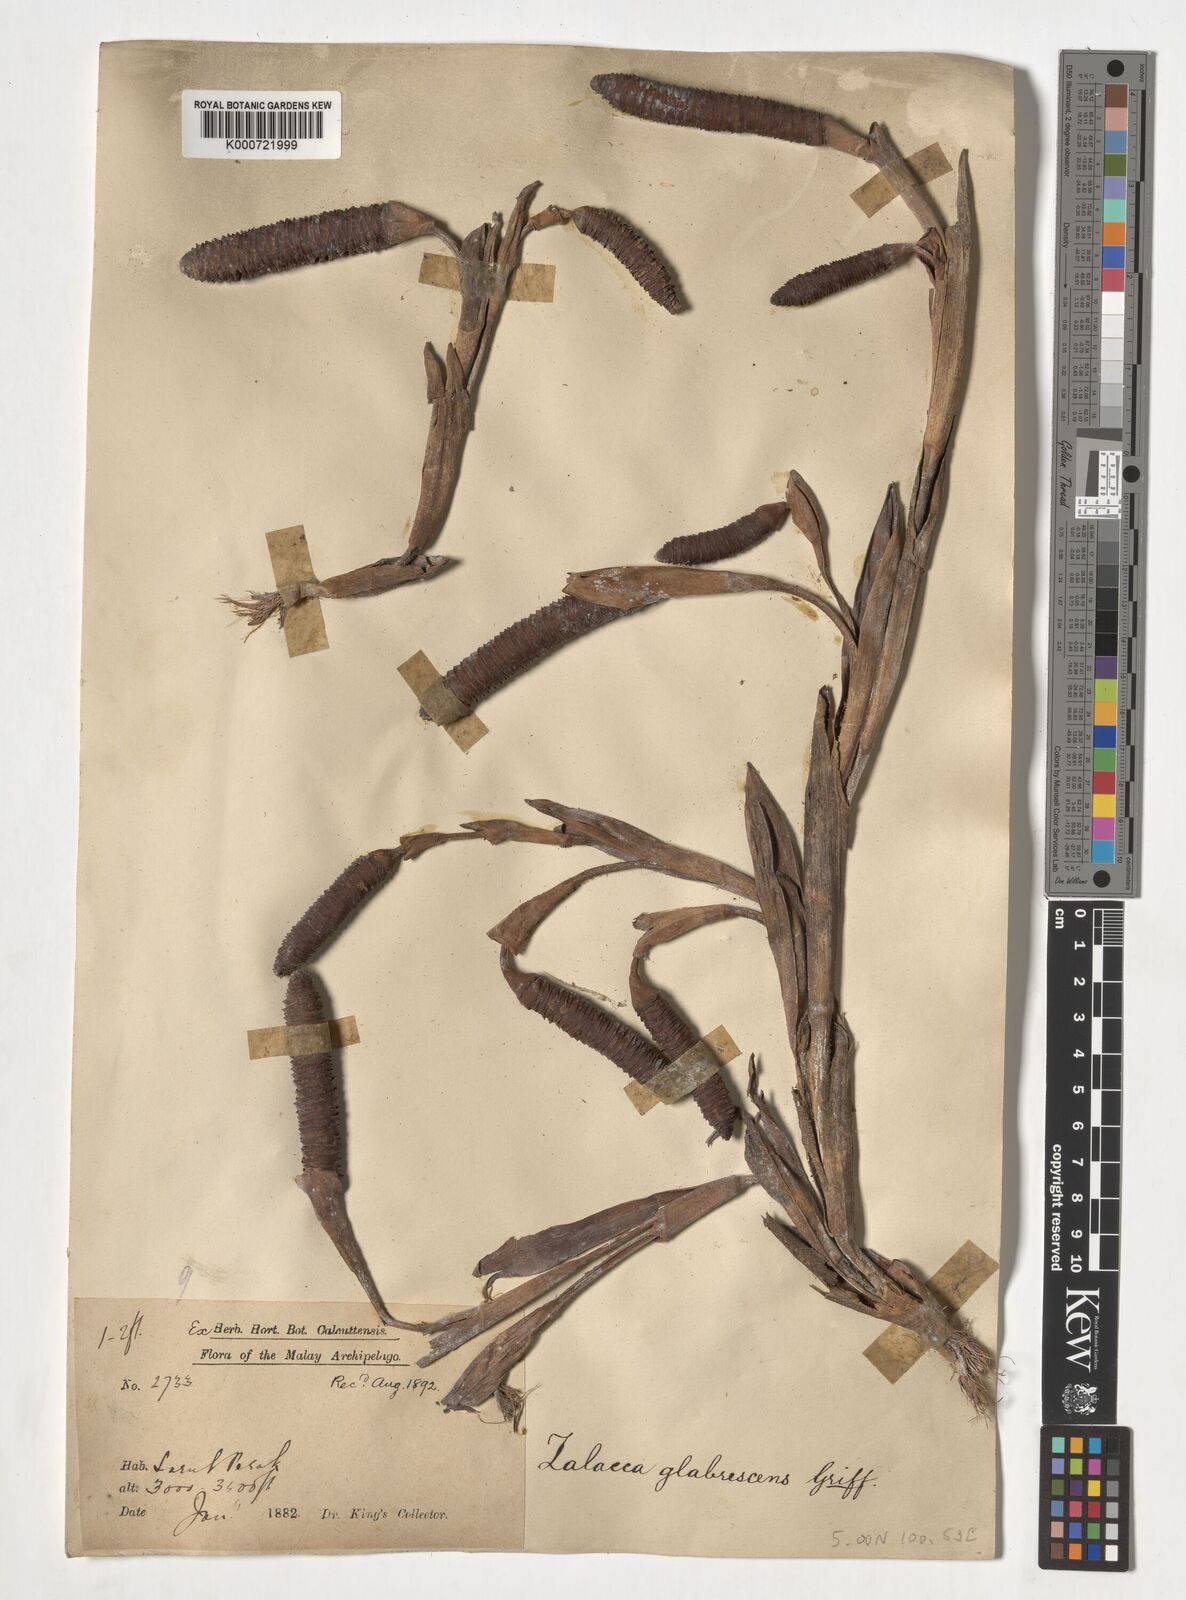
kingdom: Plantae
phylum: Tracheophyta
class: Liliopsida
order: Arecales
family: Arecaceae
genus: Salacca
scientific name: Salacca glabrescens
